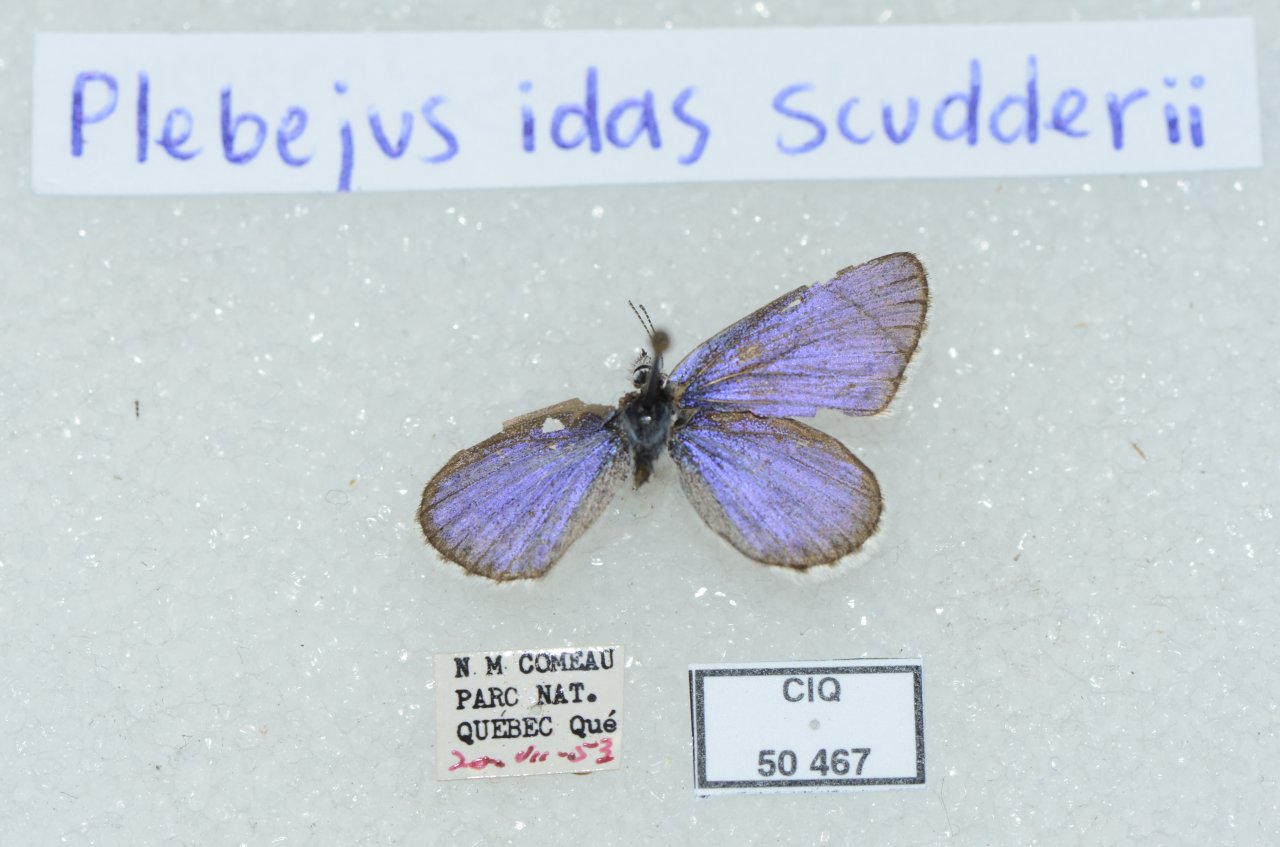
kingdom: Animalia
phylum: Arthropoda
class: Insecta
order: Lepidoptera
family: Lycaenidae
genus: Lycaeides
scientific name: Lycaeides idas
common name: Northern Blue
